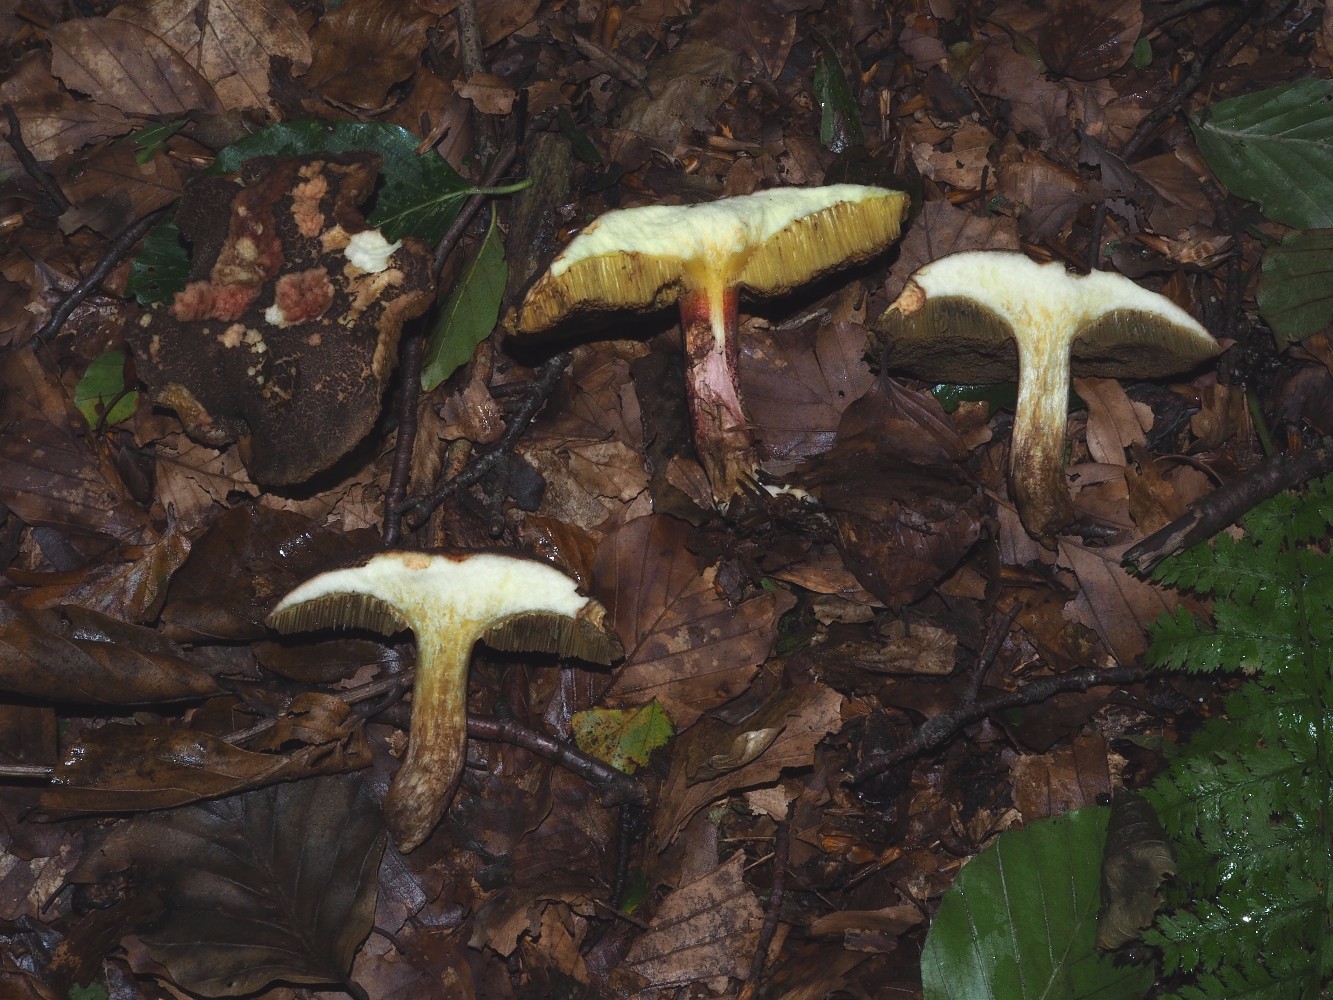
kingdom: Fungi
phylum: Basidiomycota
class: Agaricomycetes
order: Boletales
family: Boletaceae
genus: Xerocomellus
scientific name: Xerocomellus chrysenteron
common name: rødsprukken rørhat
